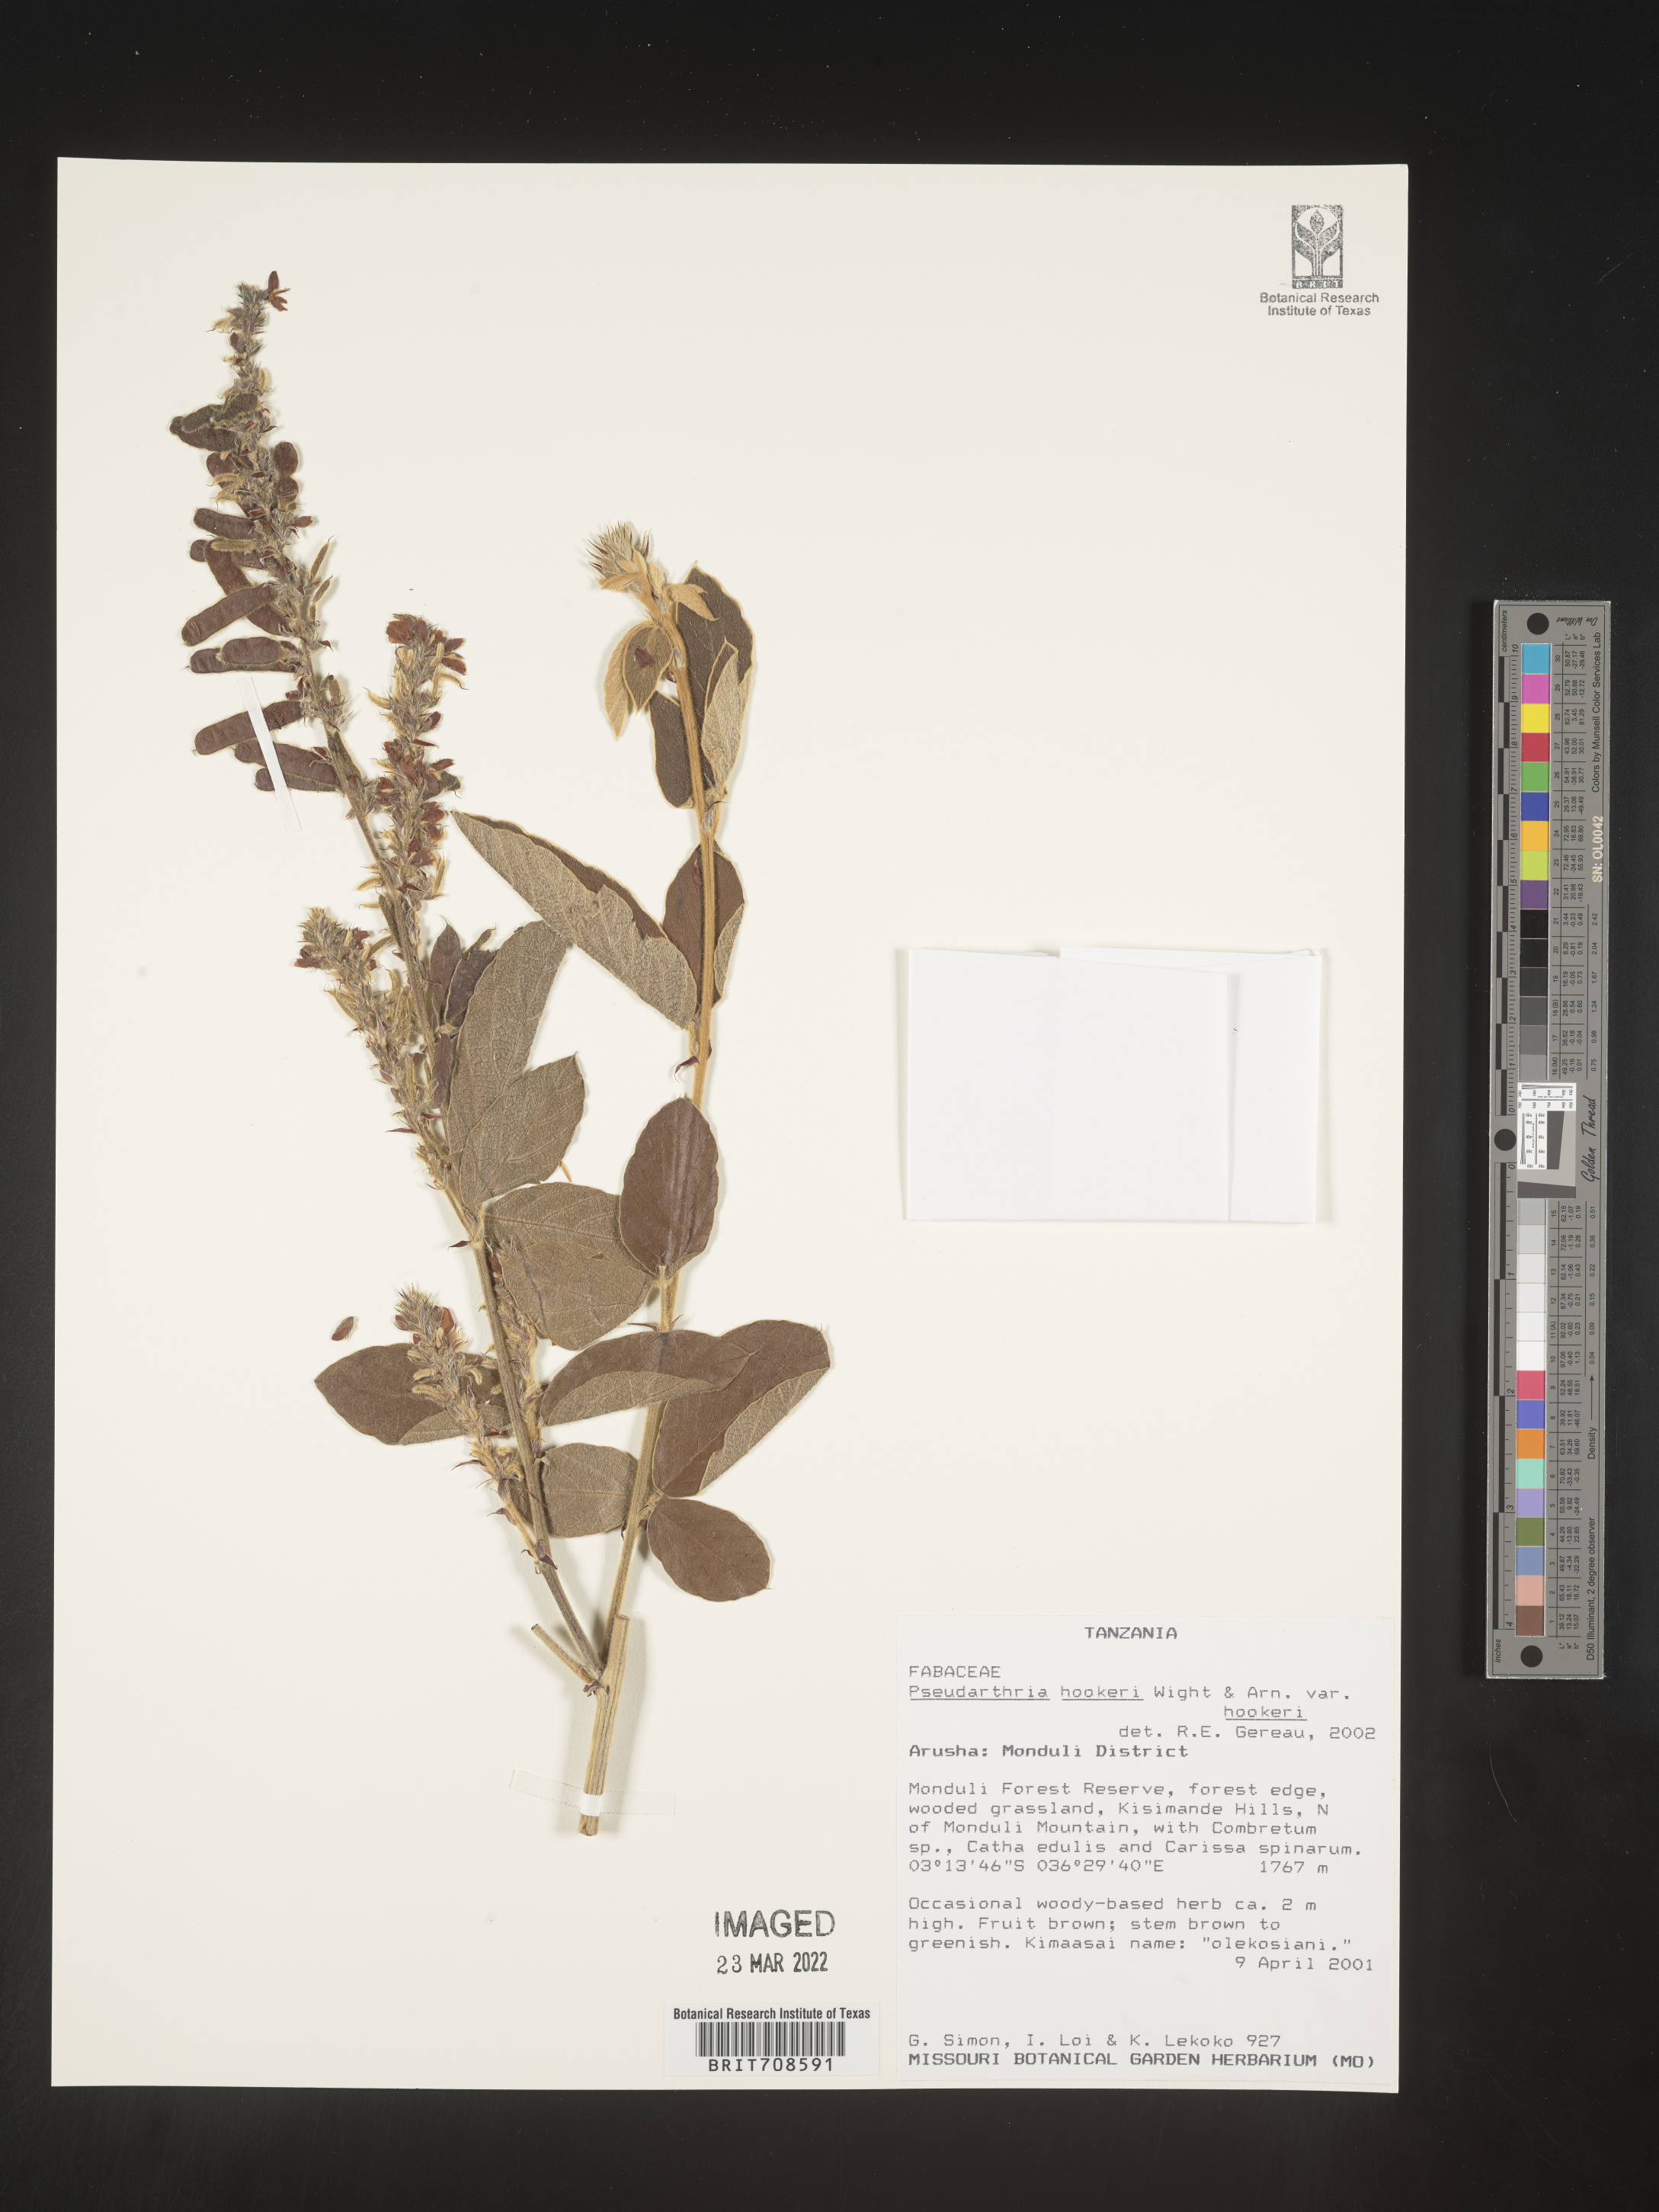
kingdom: Plantae
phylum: Tracheophyta
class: Magnoliopsida
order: Fabales
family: Fabaceae
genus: Pseudarthria
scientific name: Pseudarthria
